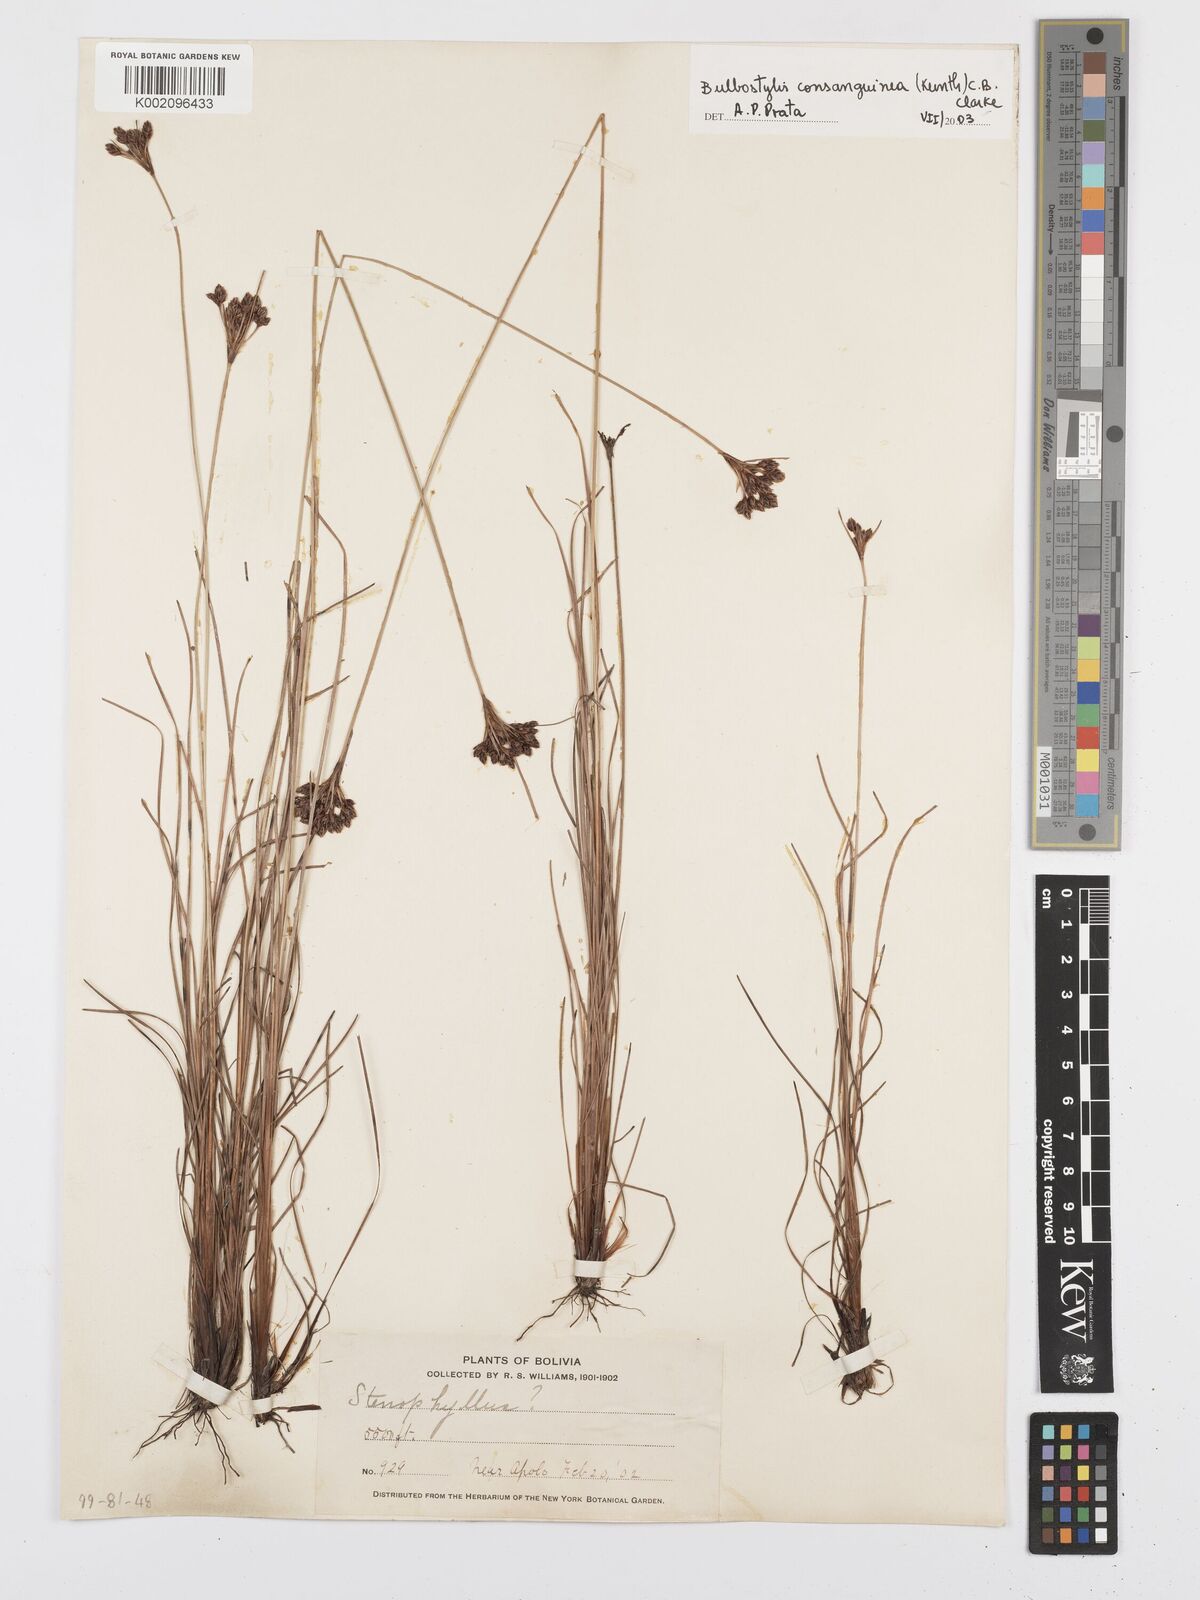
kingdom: Plantae
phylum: Tracheophyta
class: Liliopsida
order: Poales
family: Cyperaceae
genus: Bulbostylis
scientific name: Bulbostylis consanguinea
